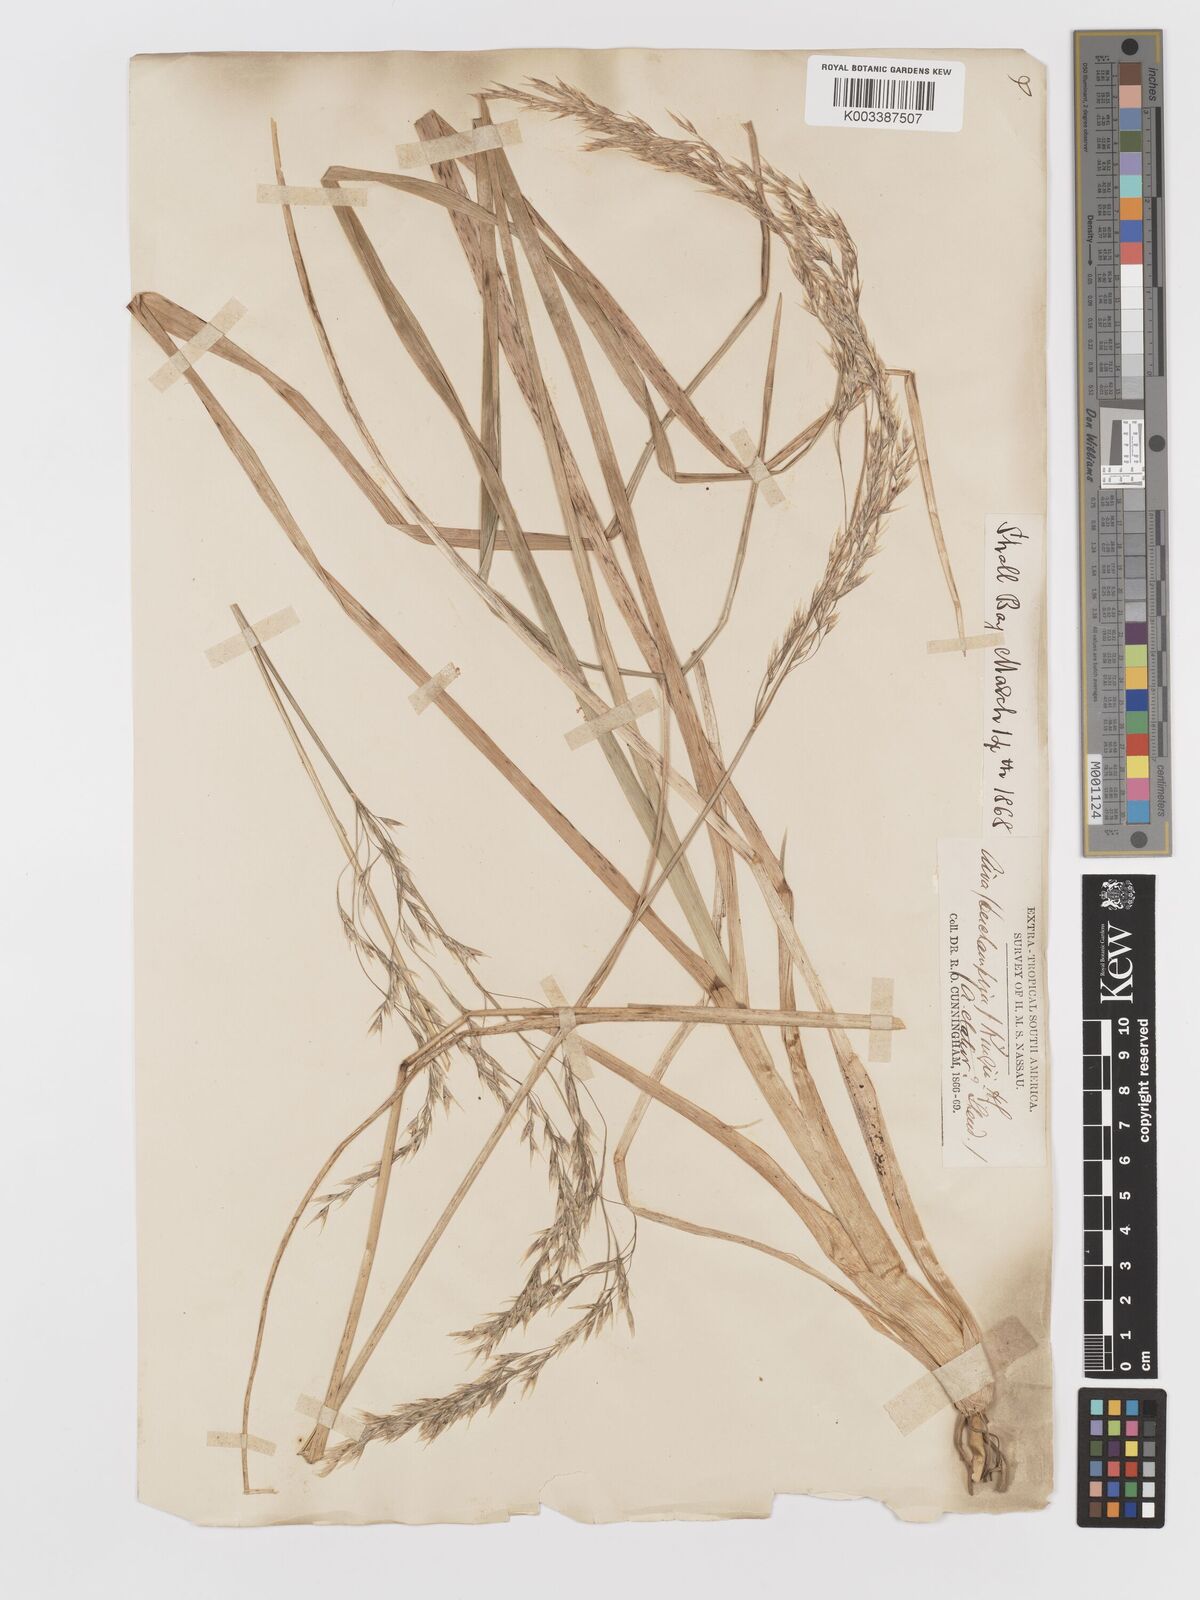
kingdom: Plantae
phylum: Tracheophyta
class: Liliopsida
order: Poales
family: Poaceae
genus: Deschampsia
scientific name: Deschampsia kingii
